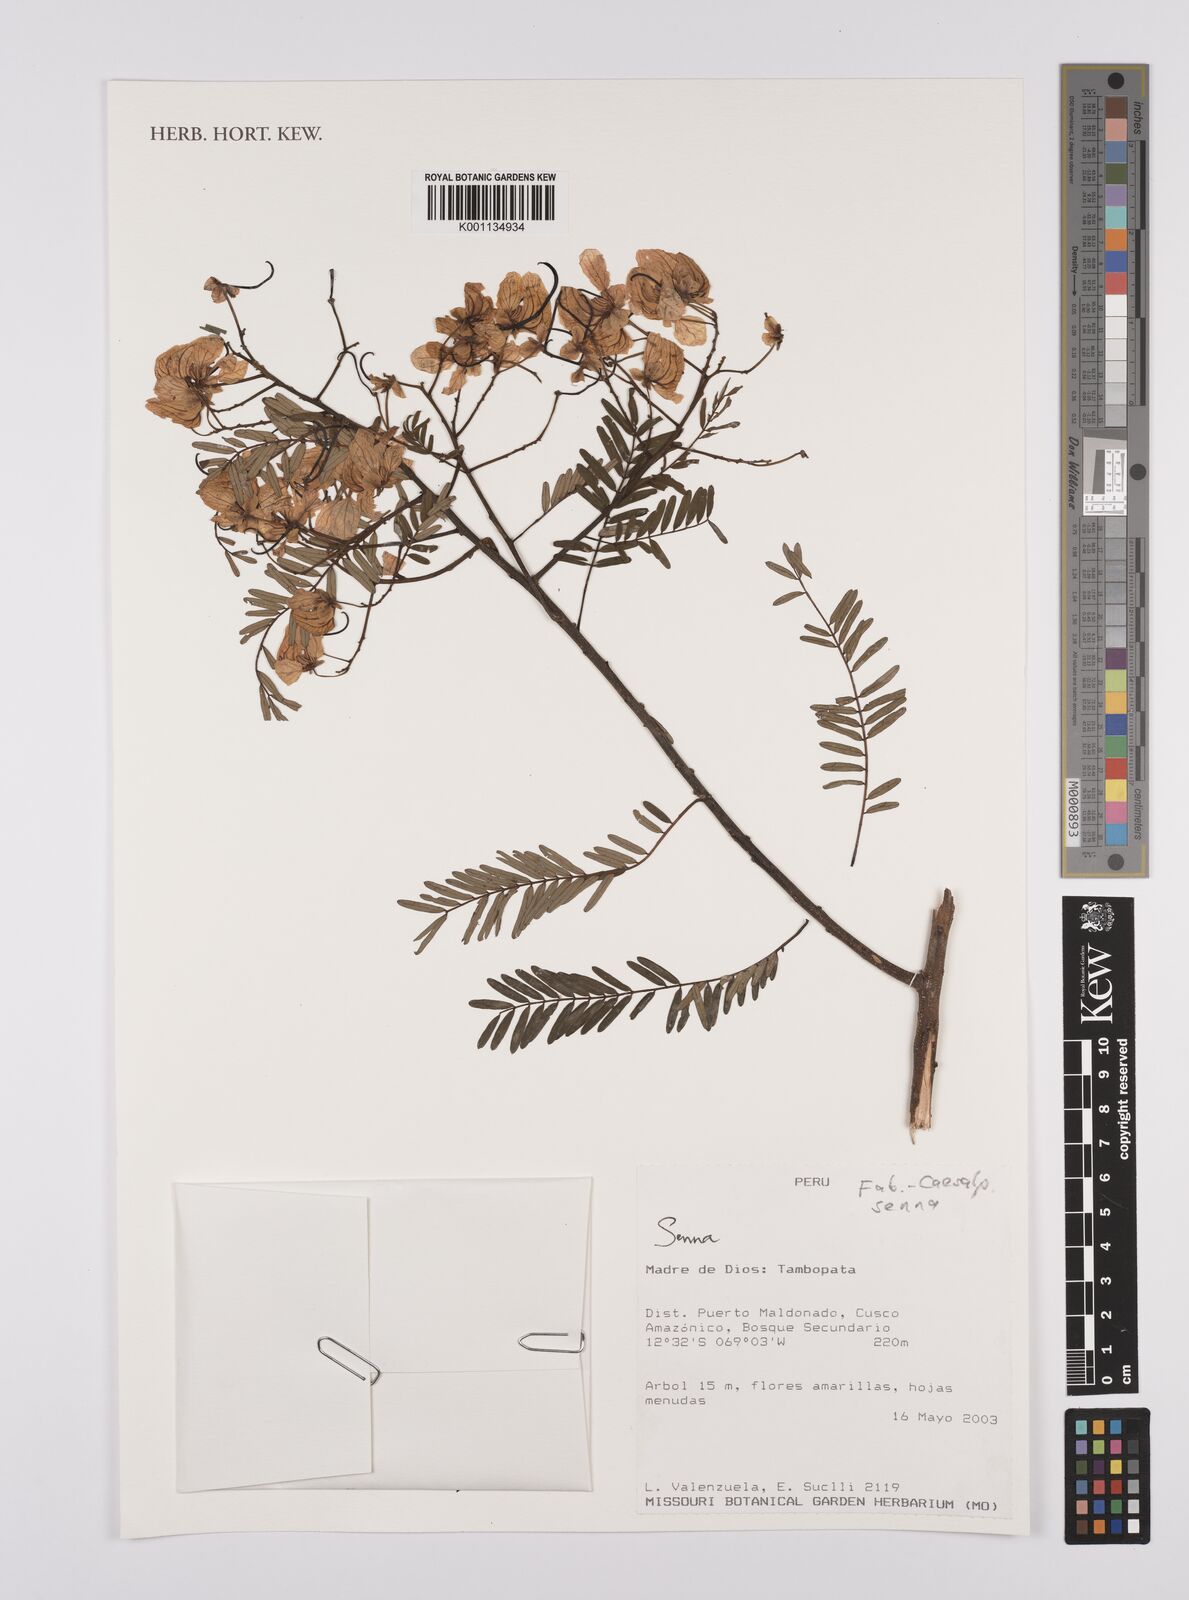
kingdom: Plantae
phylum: Tracheophyta
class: Magnoliopsida
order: Fabales
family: Fabaceae
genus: Senna
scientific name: Senna
